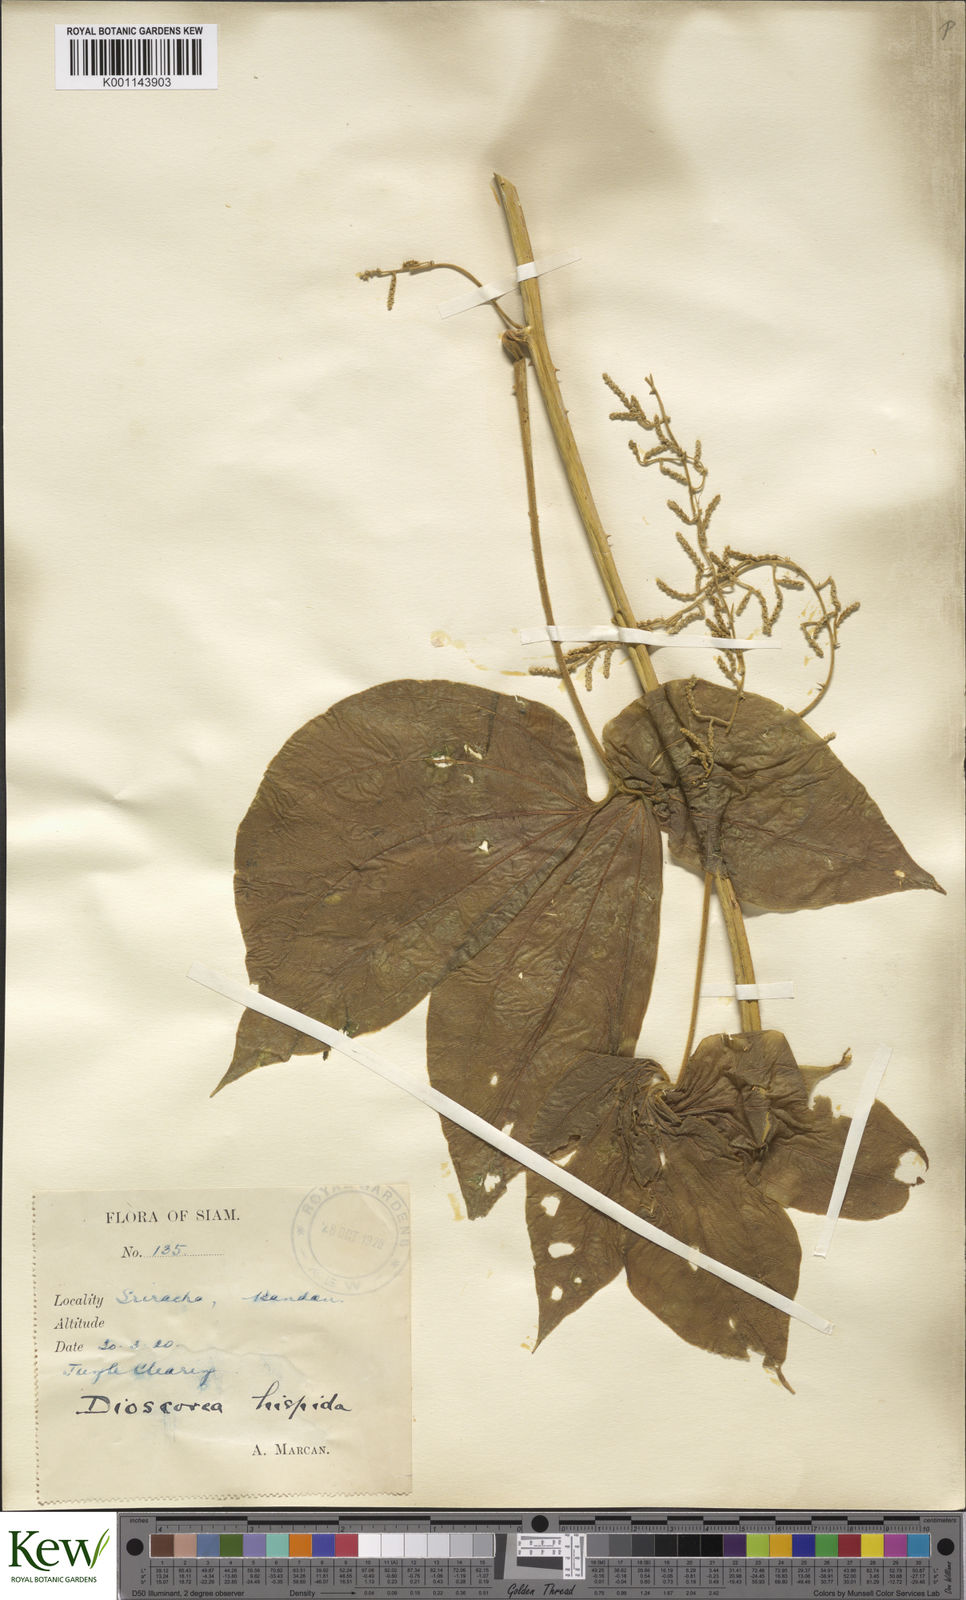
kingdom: Plantae
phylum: Tracheophyta
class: Liliopsida
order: Dioscoreales
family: Dioscoreaceae
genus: Dioscorea
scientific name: Dioscorea hispida
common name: Asiatic bitter yam
